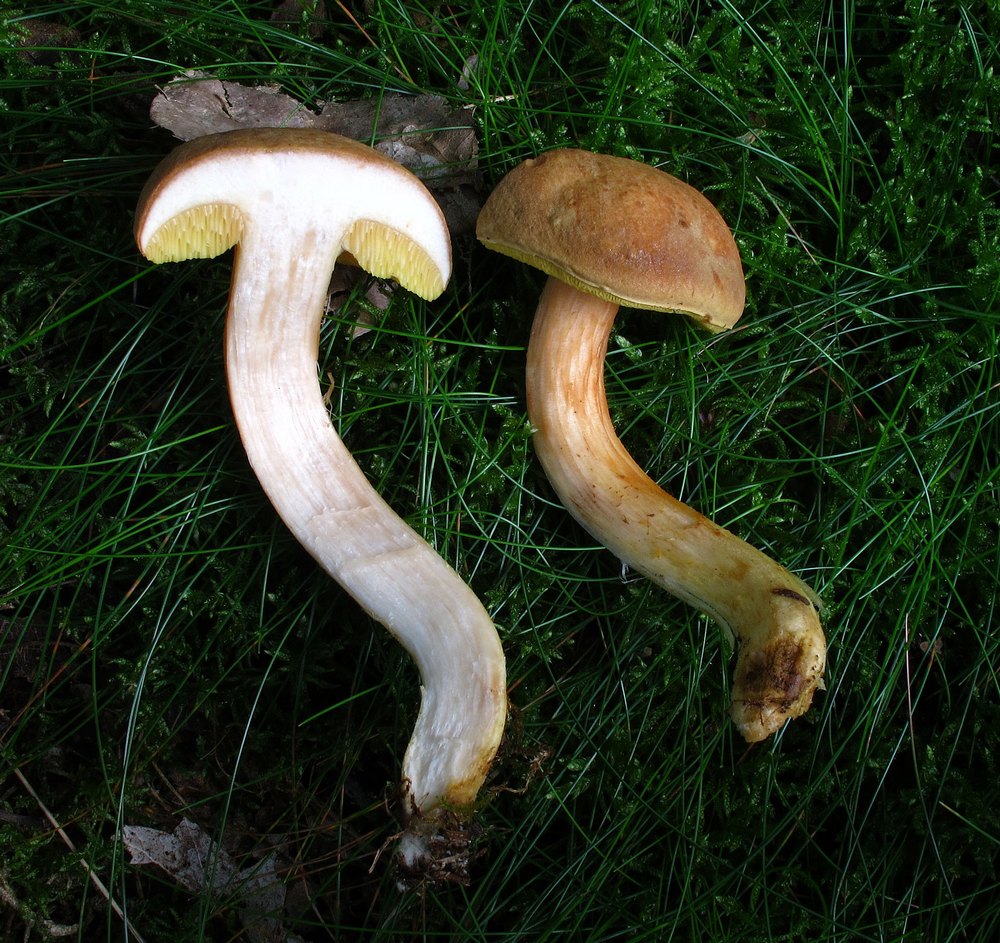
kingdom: Fungi
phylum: Basidiomycota
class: Agaricomycetes
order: Boletales
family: Boletaceae
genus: Xerocomus
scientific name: Xerocomus ferrugineus
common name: vaskeskinds-rørhat
